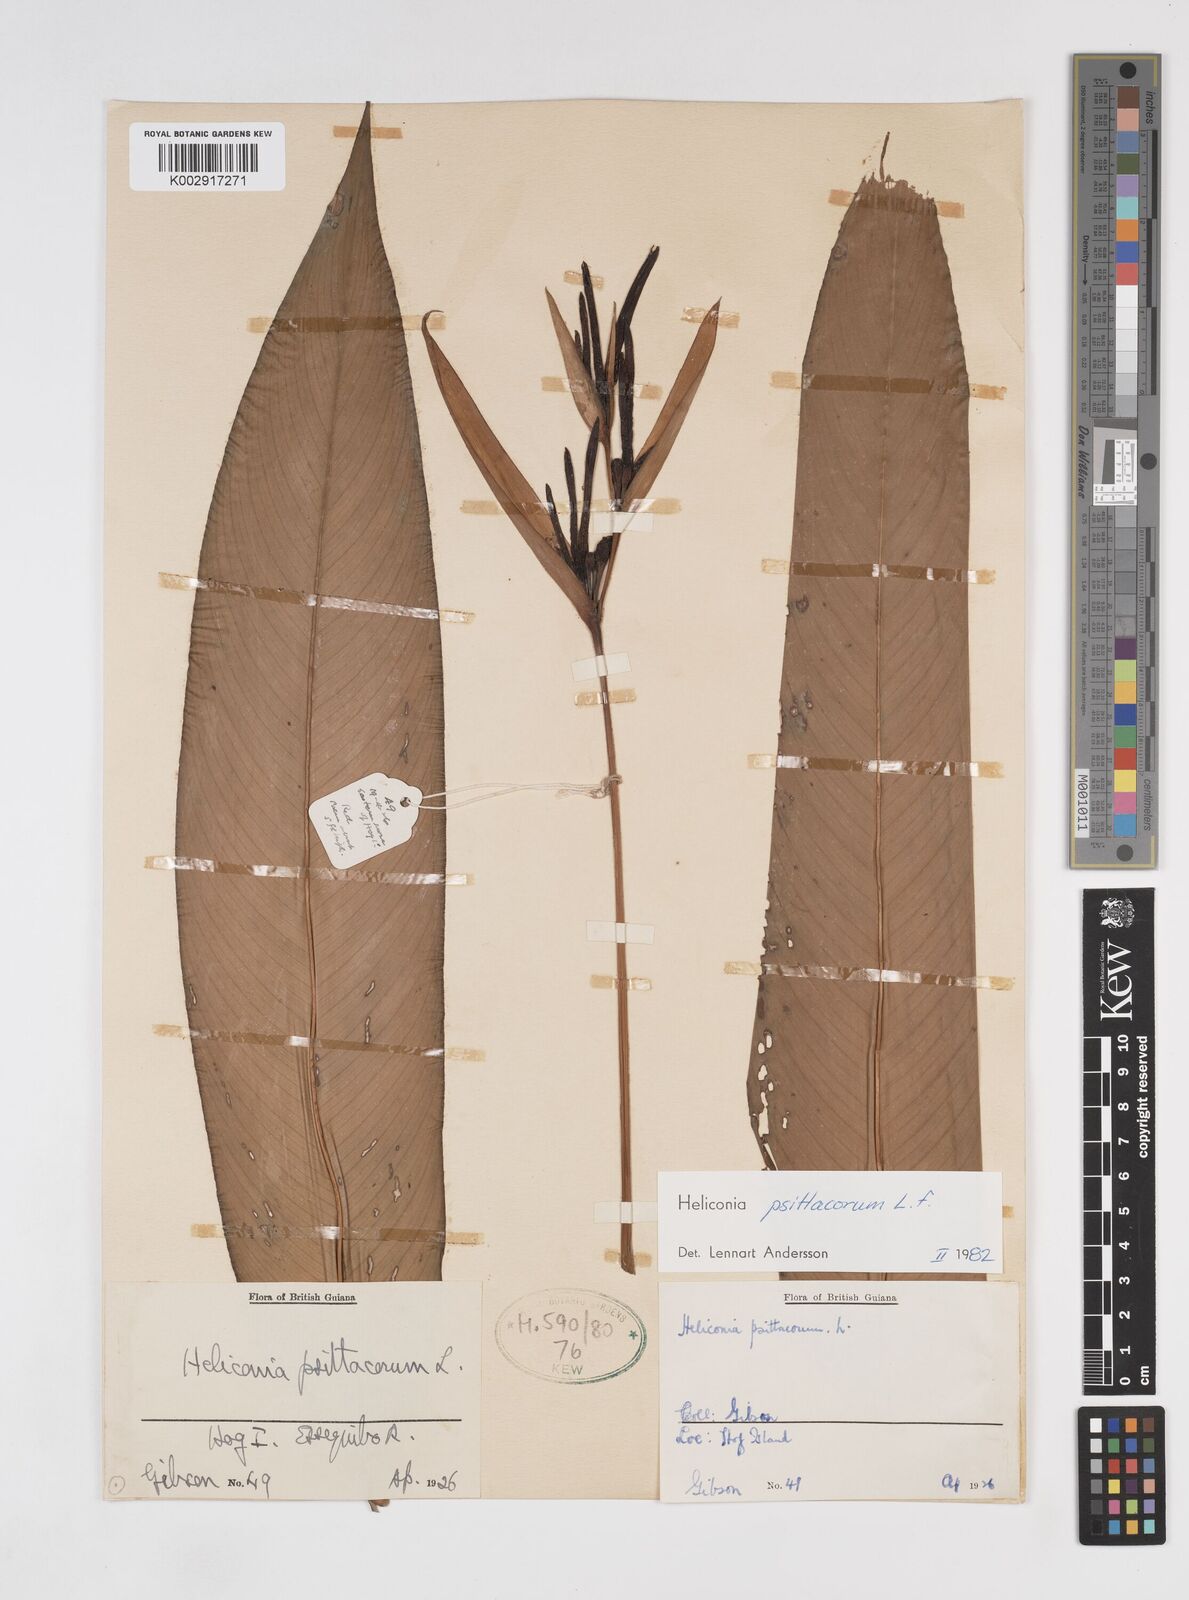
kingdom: Plantae
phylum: Tracheophyta
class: Liliopsida
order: Zingiberales
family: Heliconiaceae
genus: Heliconia
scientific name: Heliconia psittacorum
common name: Parrot's-flower
